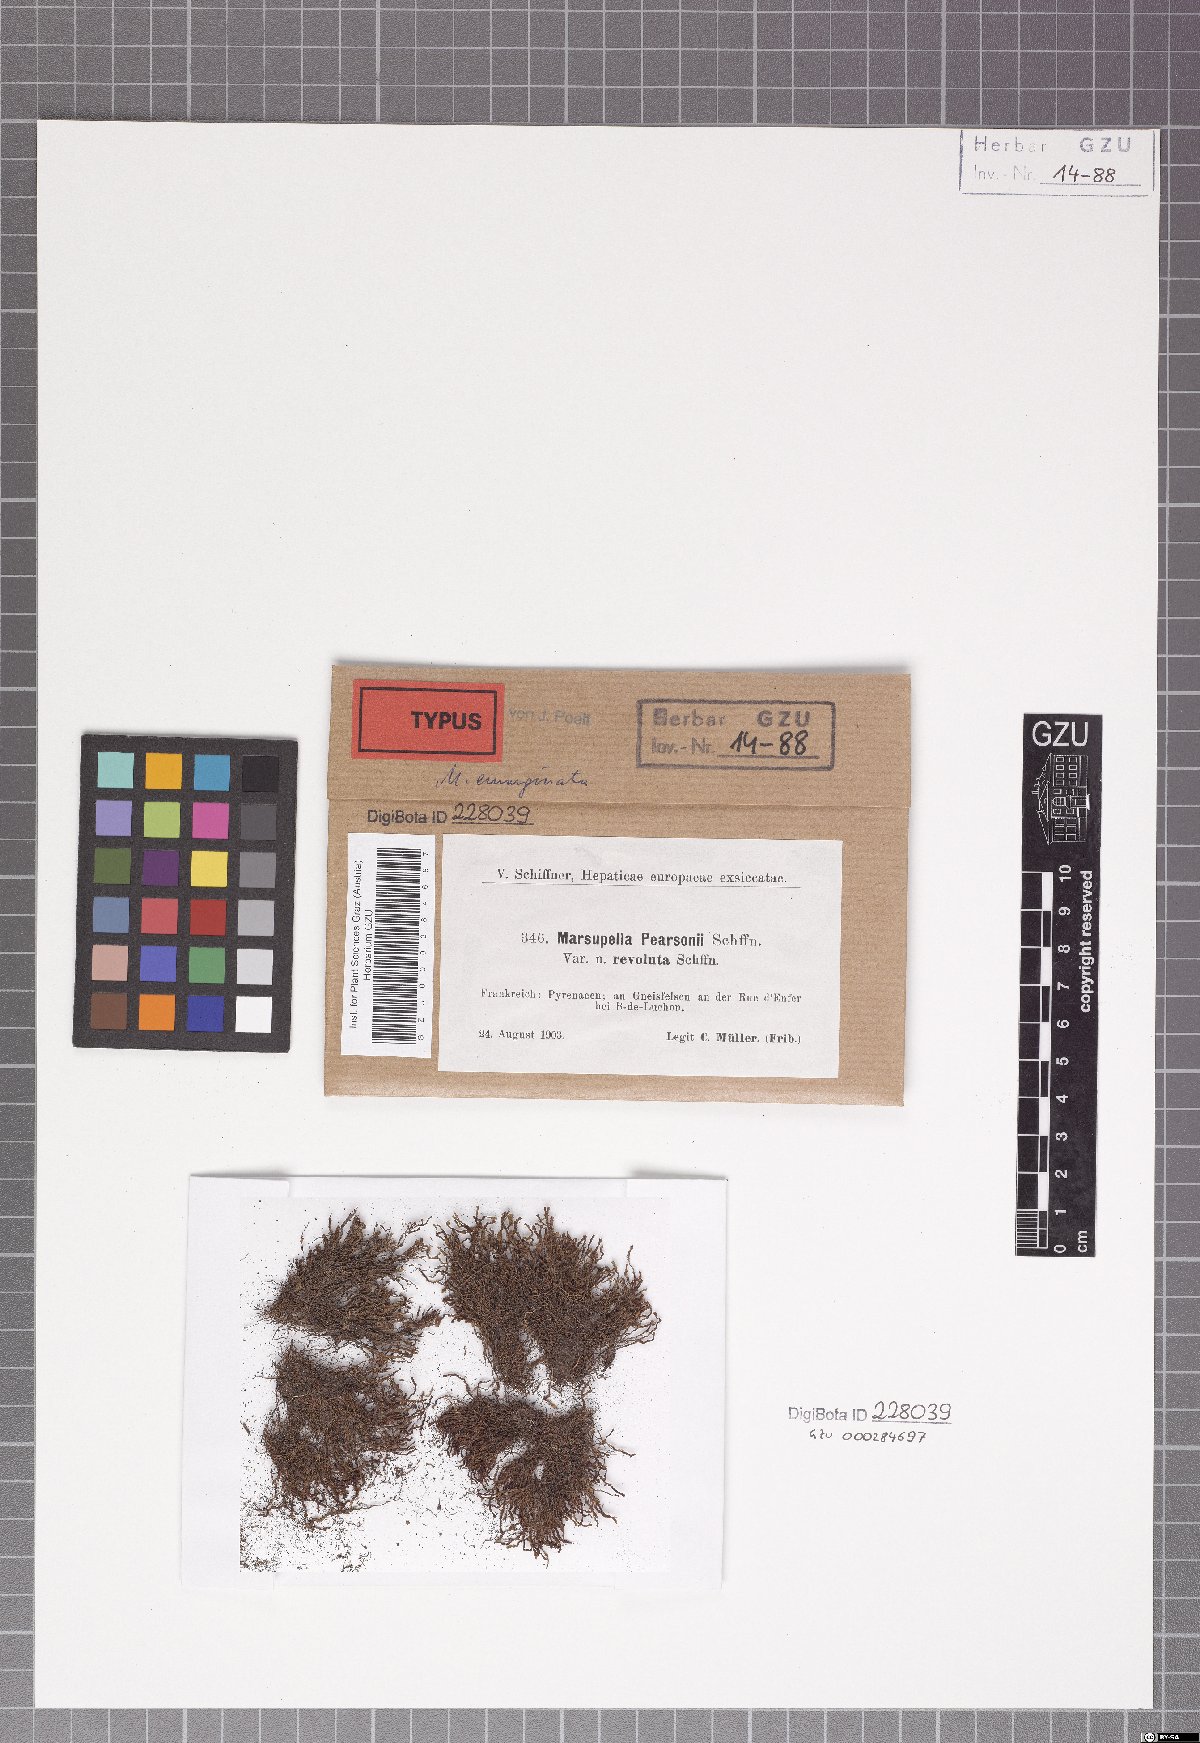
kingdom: Plantae
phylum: Marchantiophyta
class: Jungermanniopsida
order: Jungermanniales
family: Gymnomitriaceae
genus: Marsupella
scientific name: Marsupella aquatica
